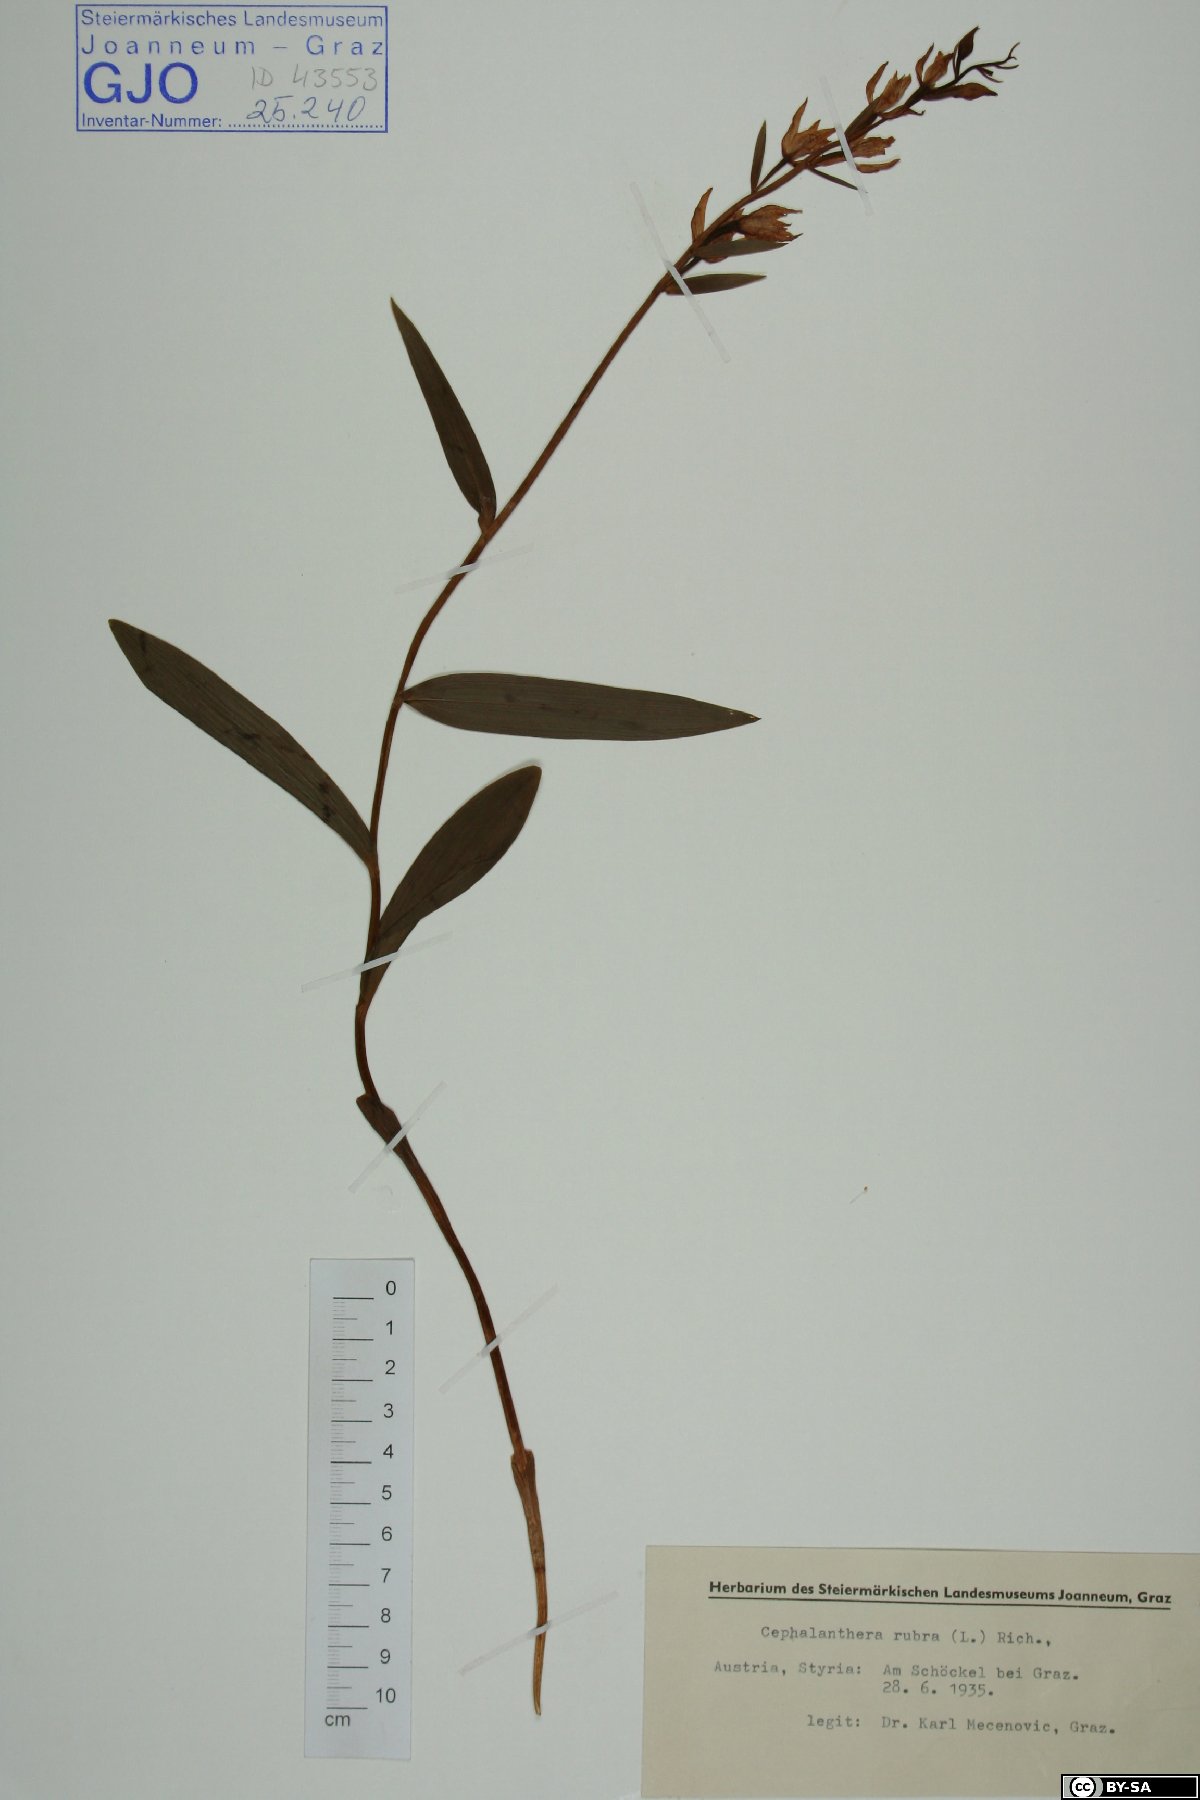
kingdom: Plantae
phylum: Tracheophyta
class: Liliopsida
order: Asparagales
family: Orchidaceae
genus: Cephalanthera
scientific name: Cephalanthera rubra
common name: Red helleborine
